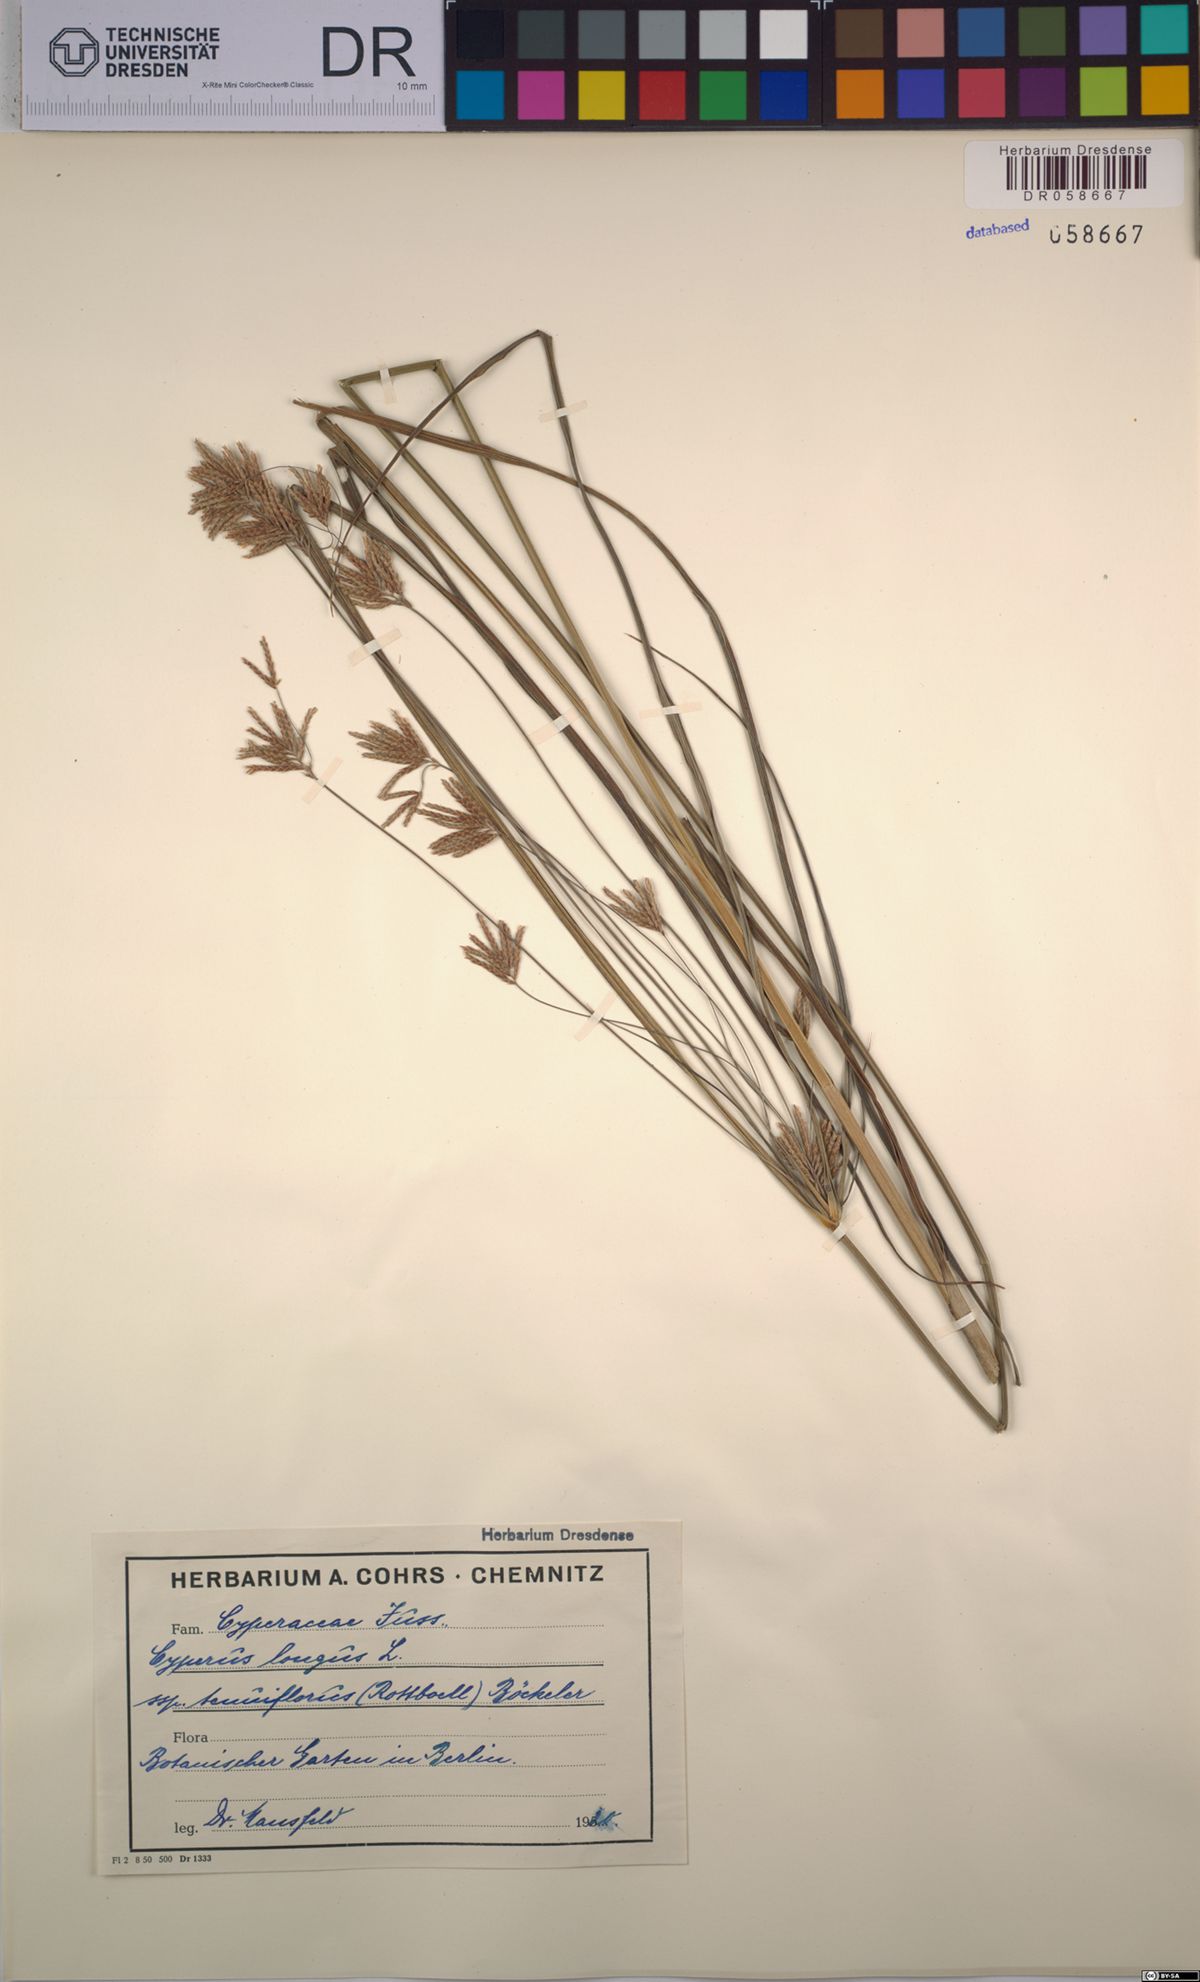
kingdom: Plantae
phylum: Tracheophyta
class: Liliopsida
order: Poales
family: Cyperaceae
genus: Cyperus
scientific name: Cyperus longus
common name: Galingale
